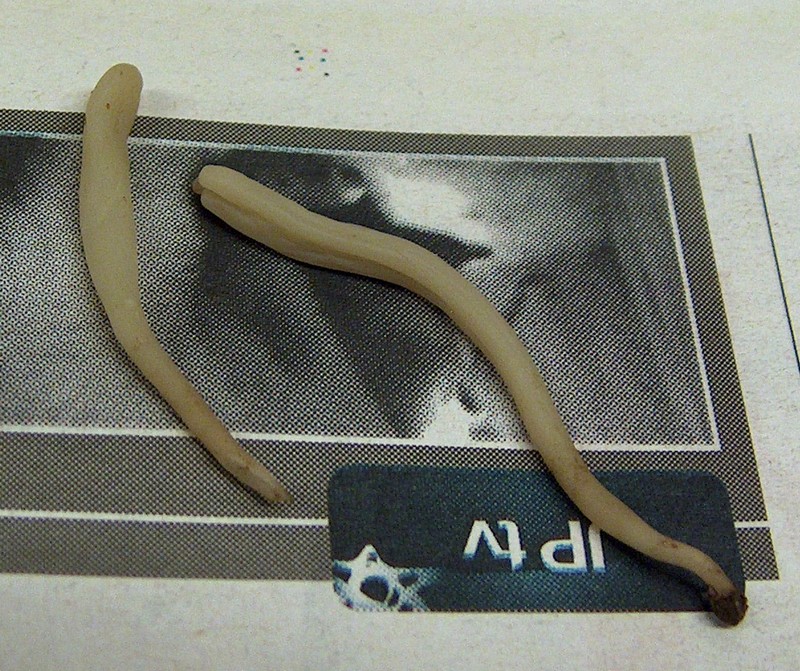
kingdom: Fungi
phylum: Basidiomycota
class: Agaricomycetes
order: Agaricales
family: Clavariaceae
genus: Clavaria
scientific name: Clavaria falcata
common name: hvid køllesvamp
